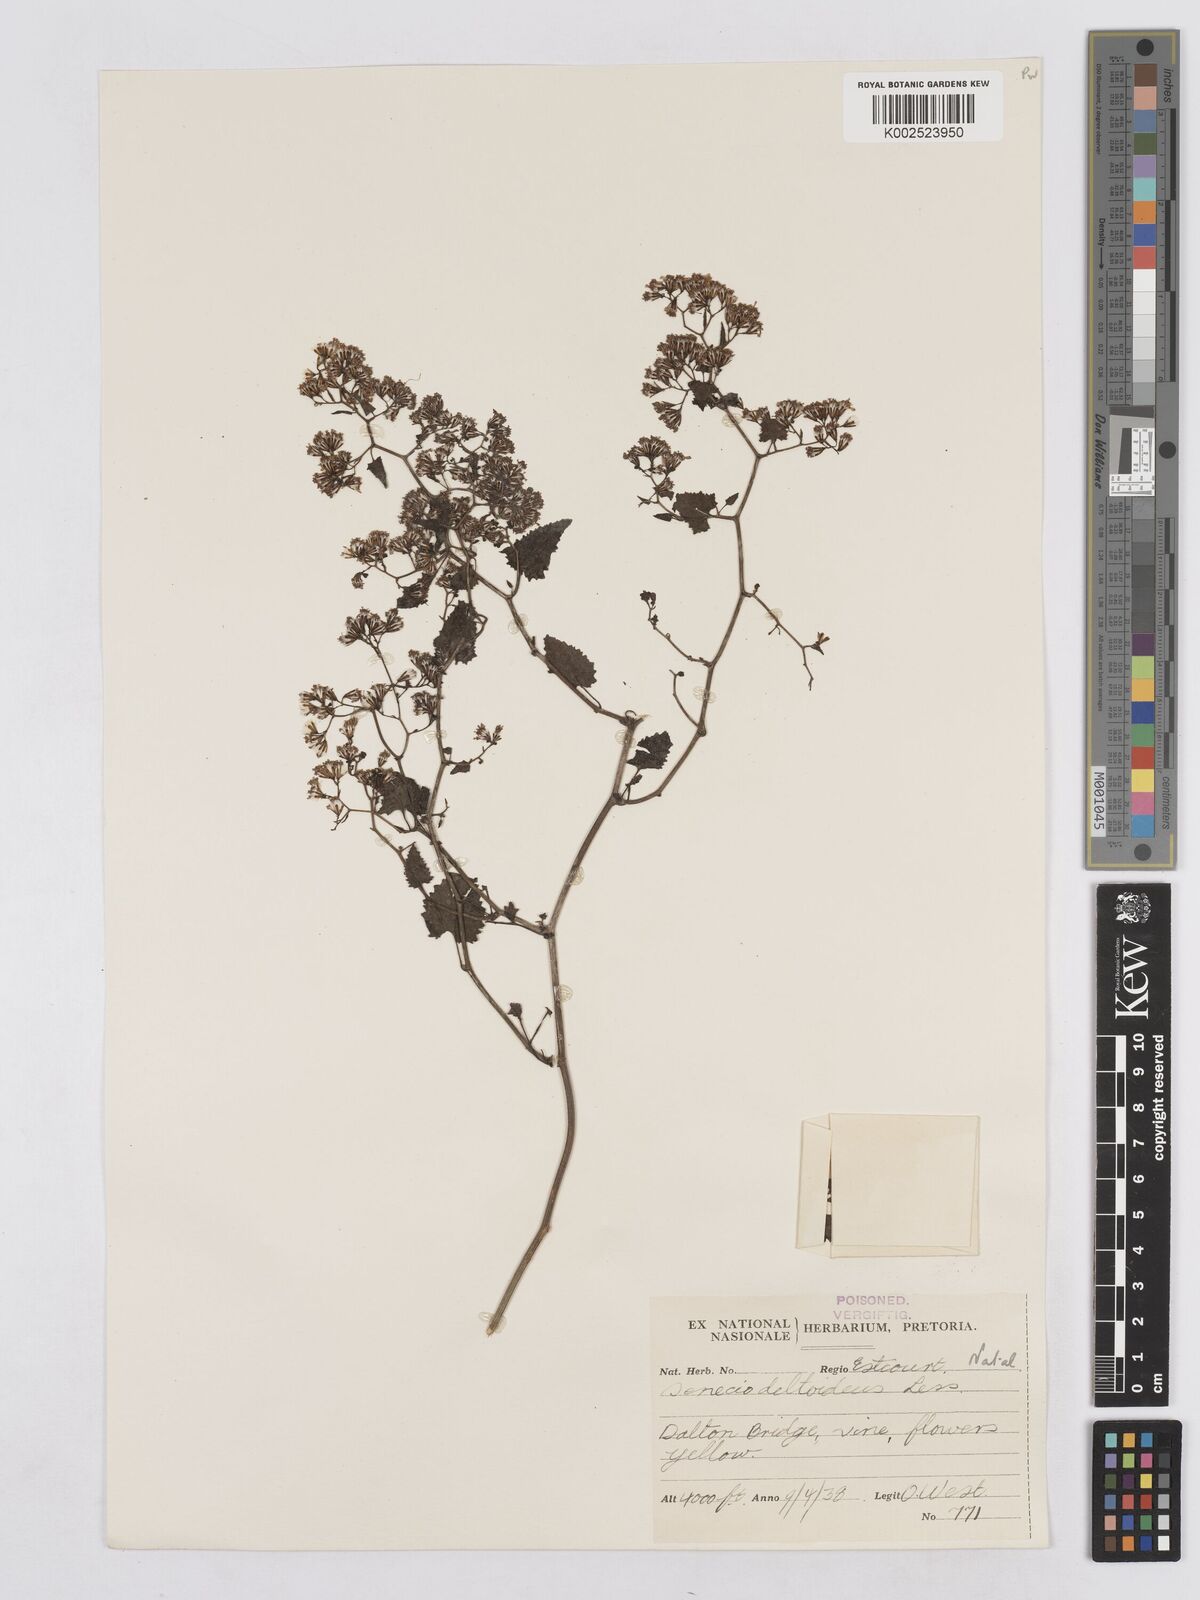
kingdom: Plantae
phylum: Tracheophyta
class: Magnoliopsida
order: Asterales
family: Asteraceae
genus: Senecio
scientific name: Senecio deltoideus
